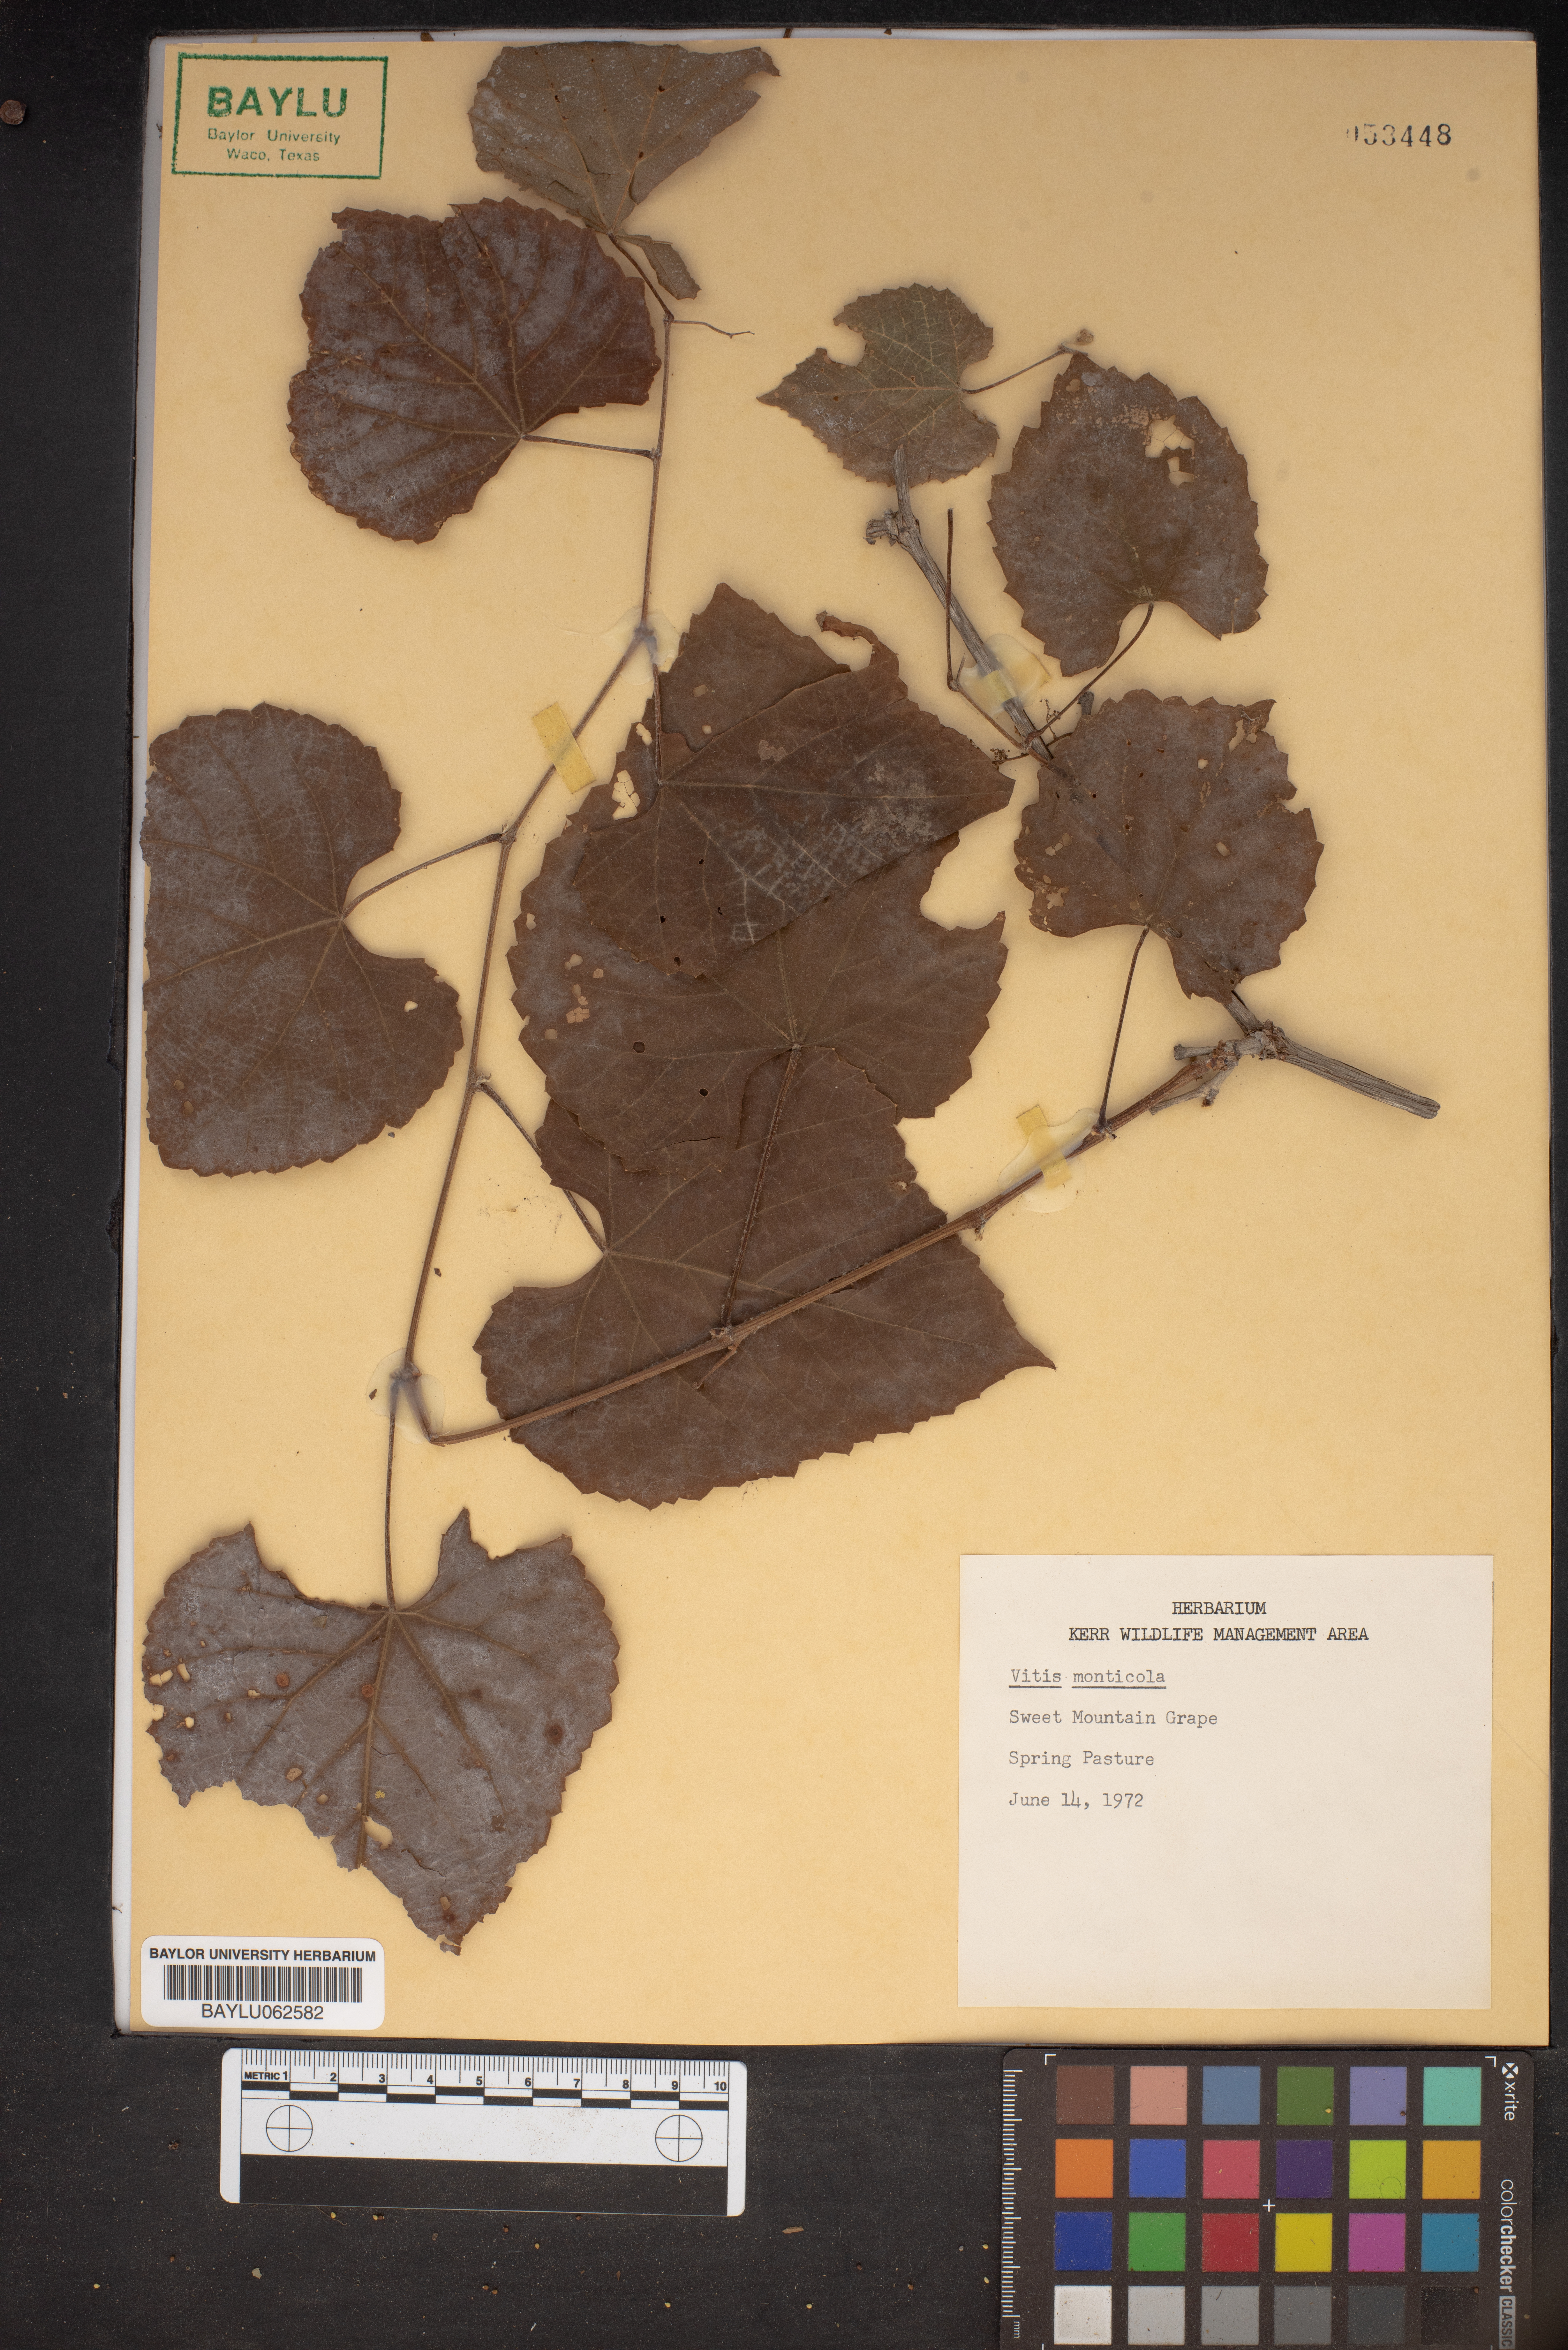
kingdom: Plantae
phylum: Tracheophyta
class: Magnoliopsida
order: Vitales
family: Vitaceae
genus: Vitis
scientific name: Vitis monticola
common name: Mountain grape
